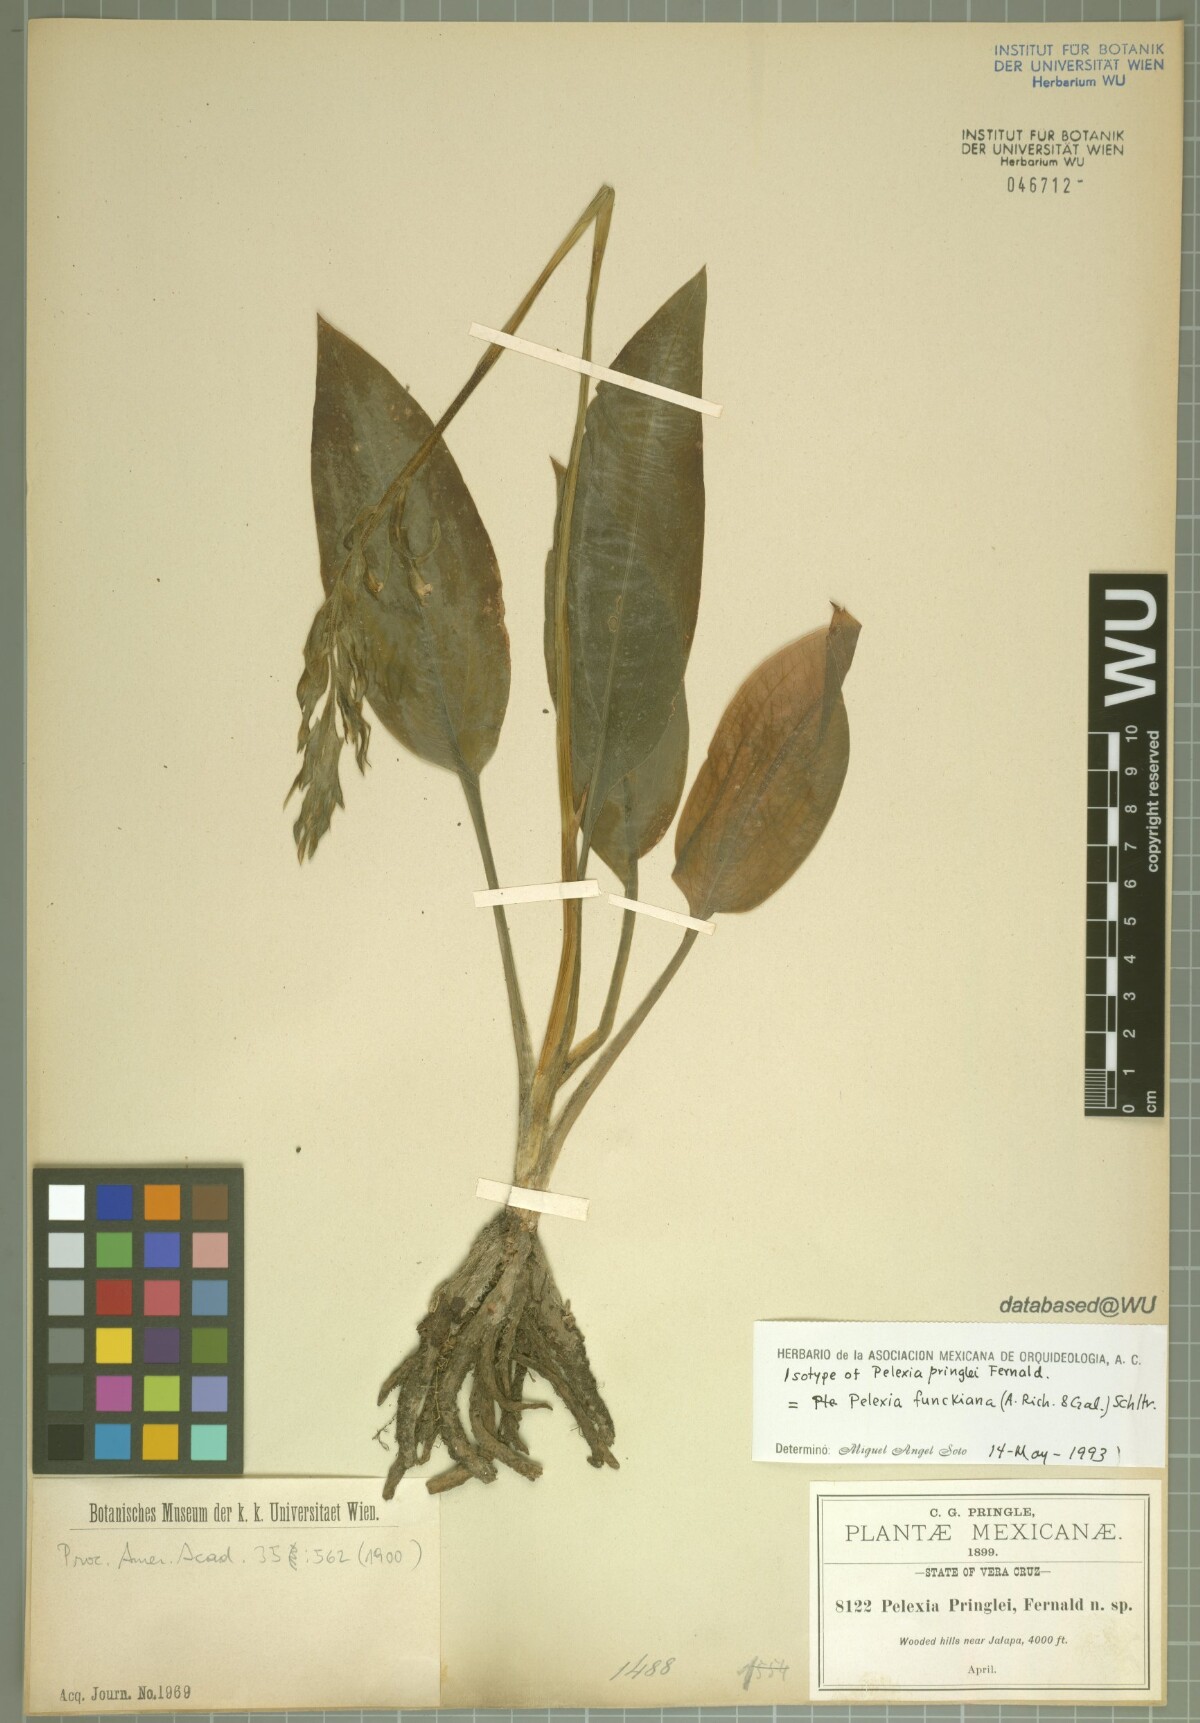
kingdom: Plantae
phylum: Tracheophyta
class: Liliopsida
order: Asparagales
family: Orchidaceae
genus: Pelexia
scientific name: Pelexia funckiana
